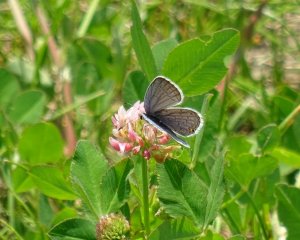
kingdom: Animalia
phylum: Arthropoda
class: Insecta
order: Lepidoptera
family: Lycaenidae
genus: Elkalyce
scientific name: Elkalyce comyntas
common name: Eastern Tailed-Blue
